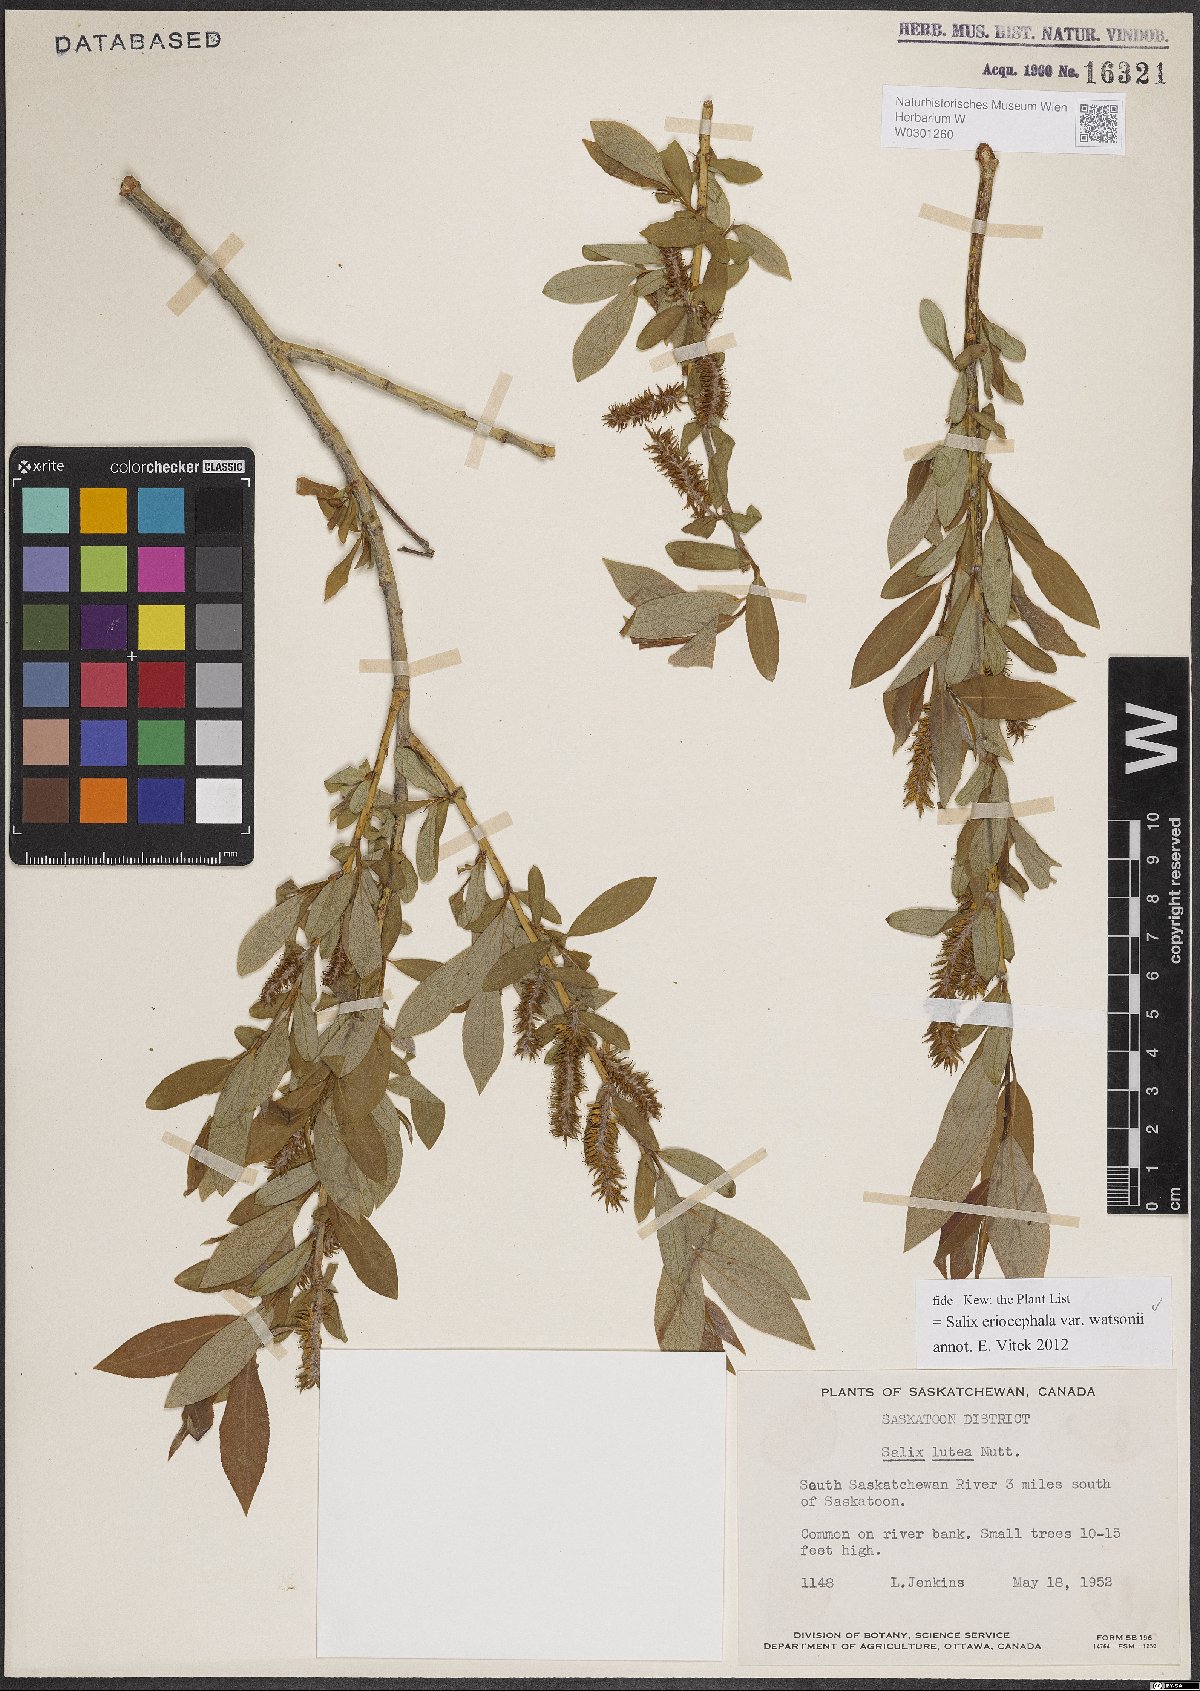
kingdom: Plantae
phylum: Tracheophyta
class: Magnoliopsida
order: Malpighiales
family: Salicaceae
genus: Salix
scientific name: Salix lutea
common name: Yellow willow
